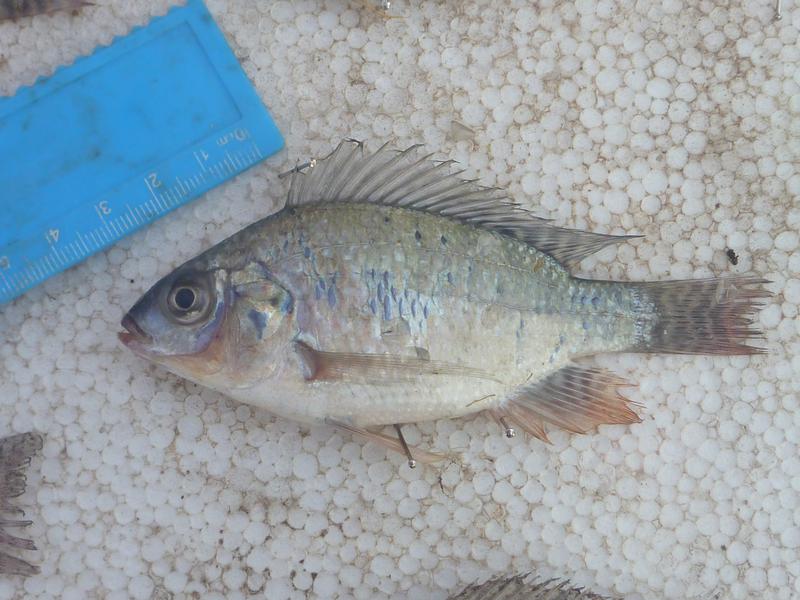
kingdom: Animalia
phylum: Chordata
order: Perciformes
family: Cichlidae
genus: Oreochromis
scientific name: Oreochromis niloticus
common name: Nile tilapia
